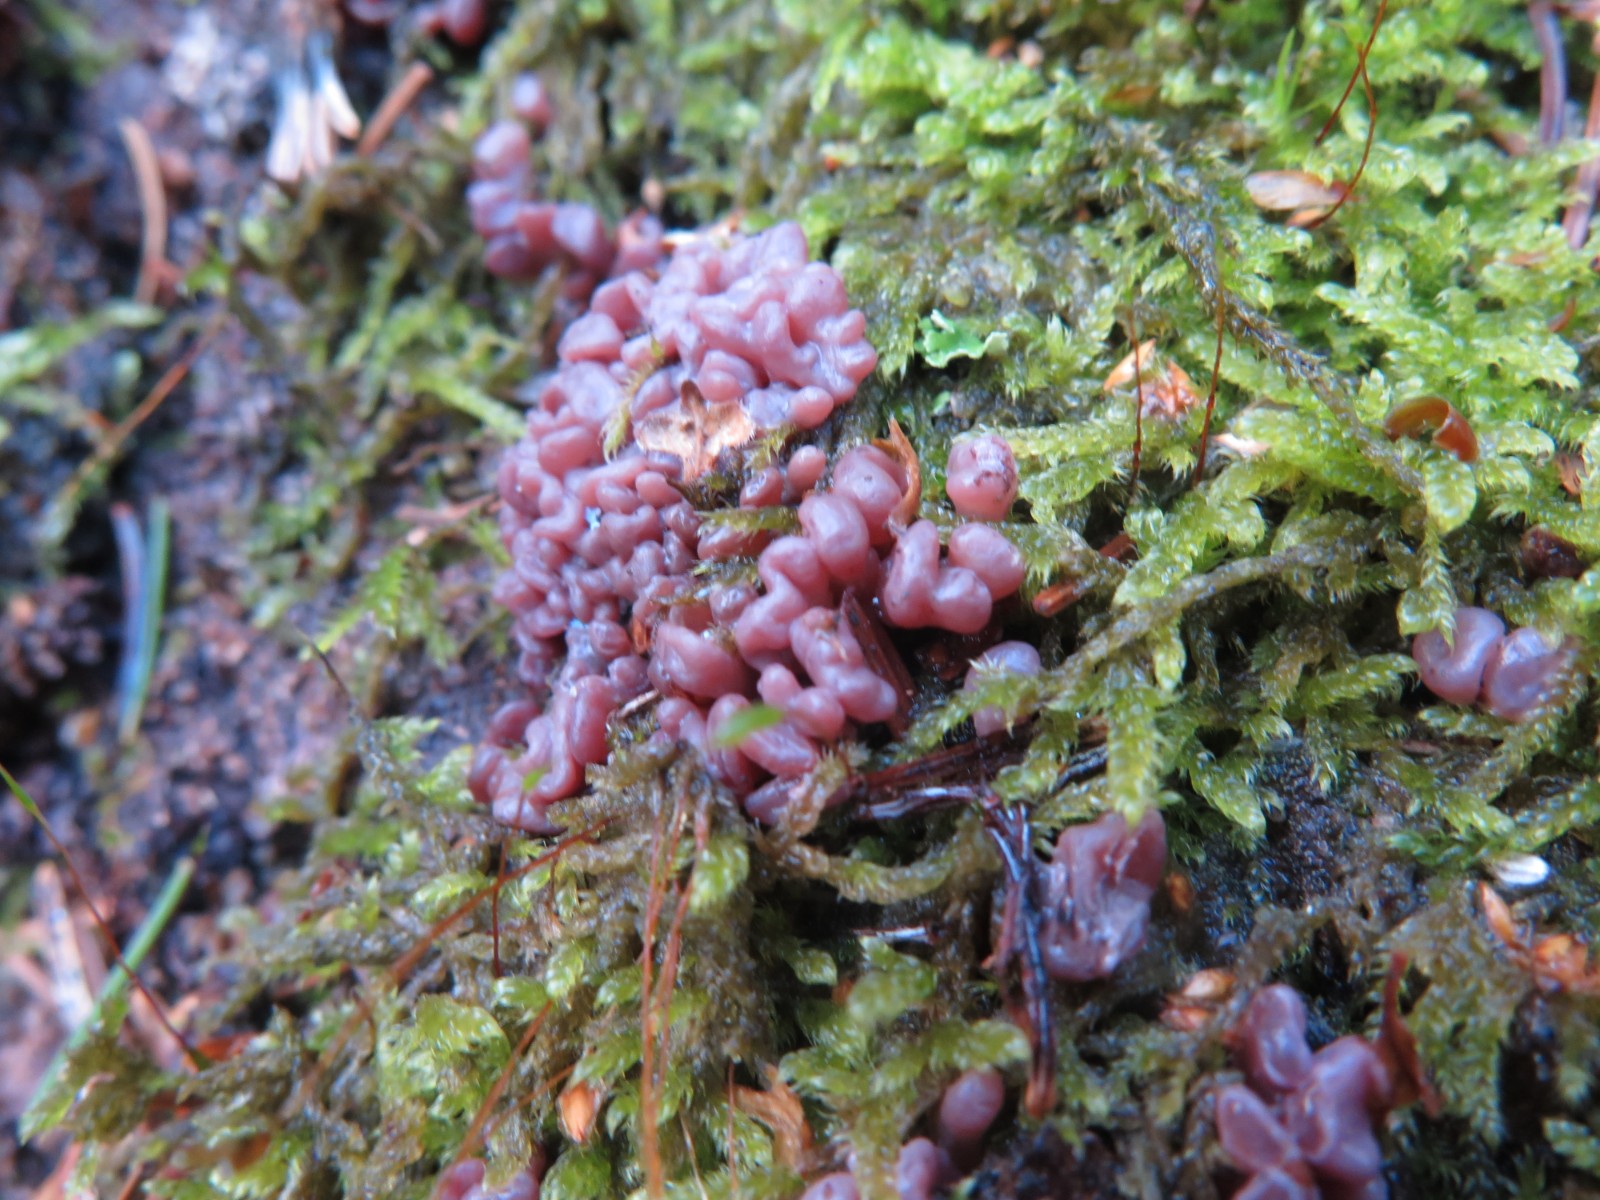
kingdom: Fungi
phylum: Ascomycota
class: Leotiomycetes
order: Helotiales
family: Gelatinodiscaceae
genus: Ascocoryne
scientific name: Ascocoryne sarcoides
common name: rødlilla sejskive
